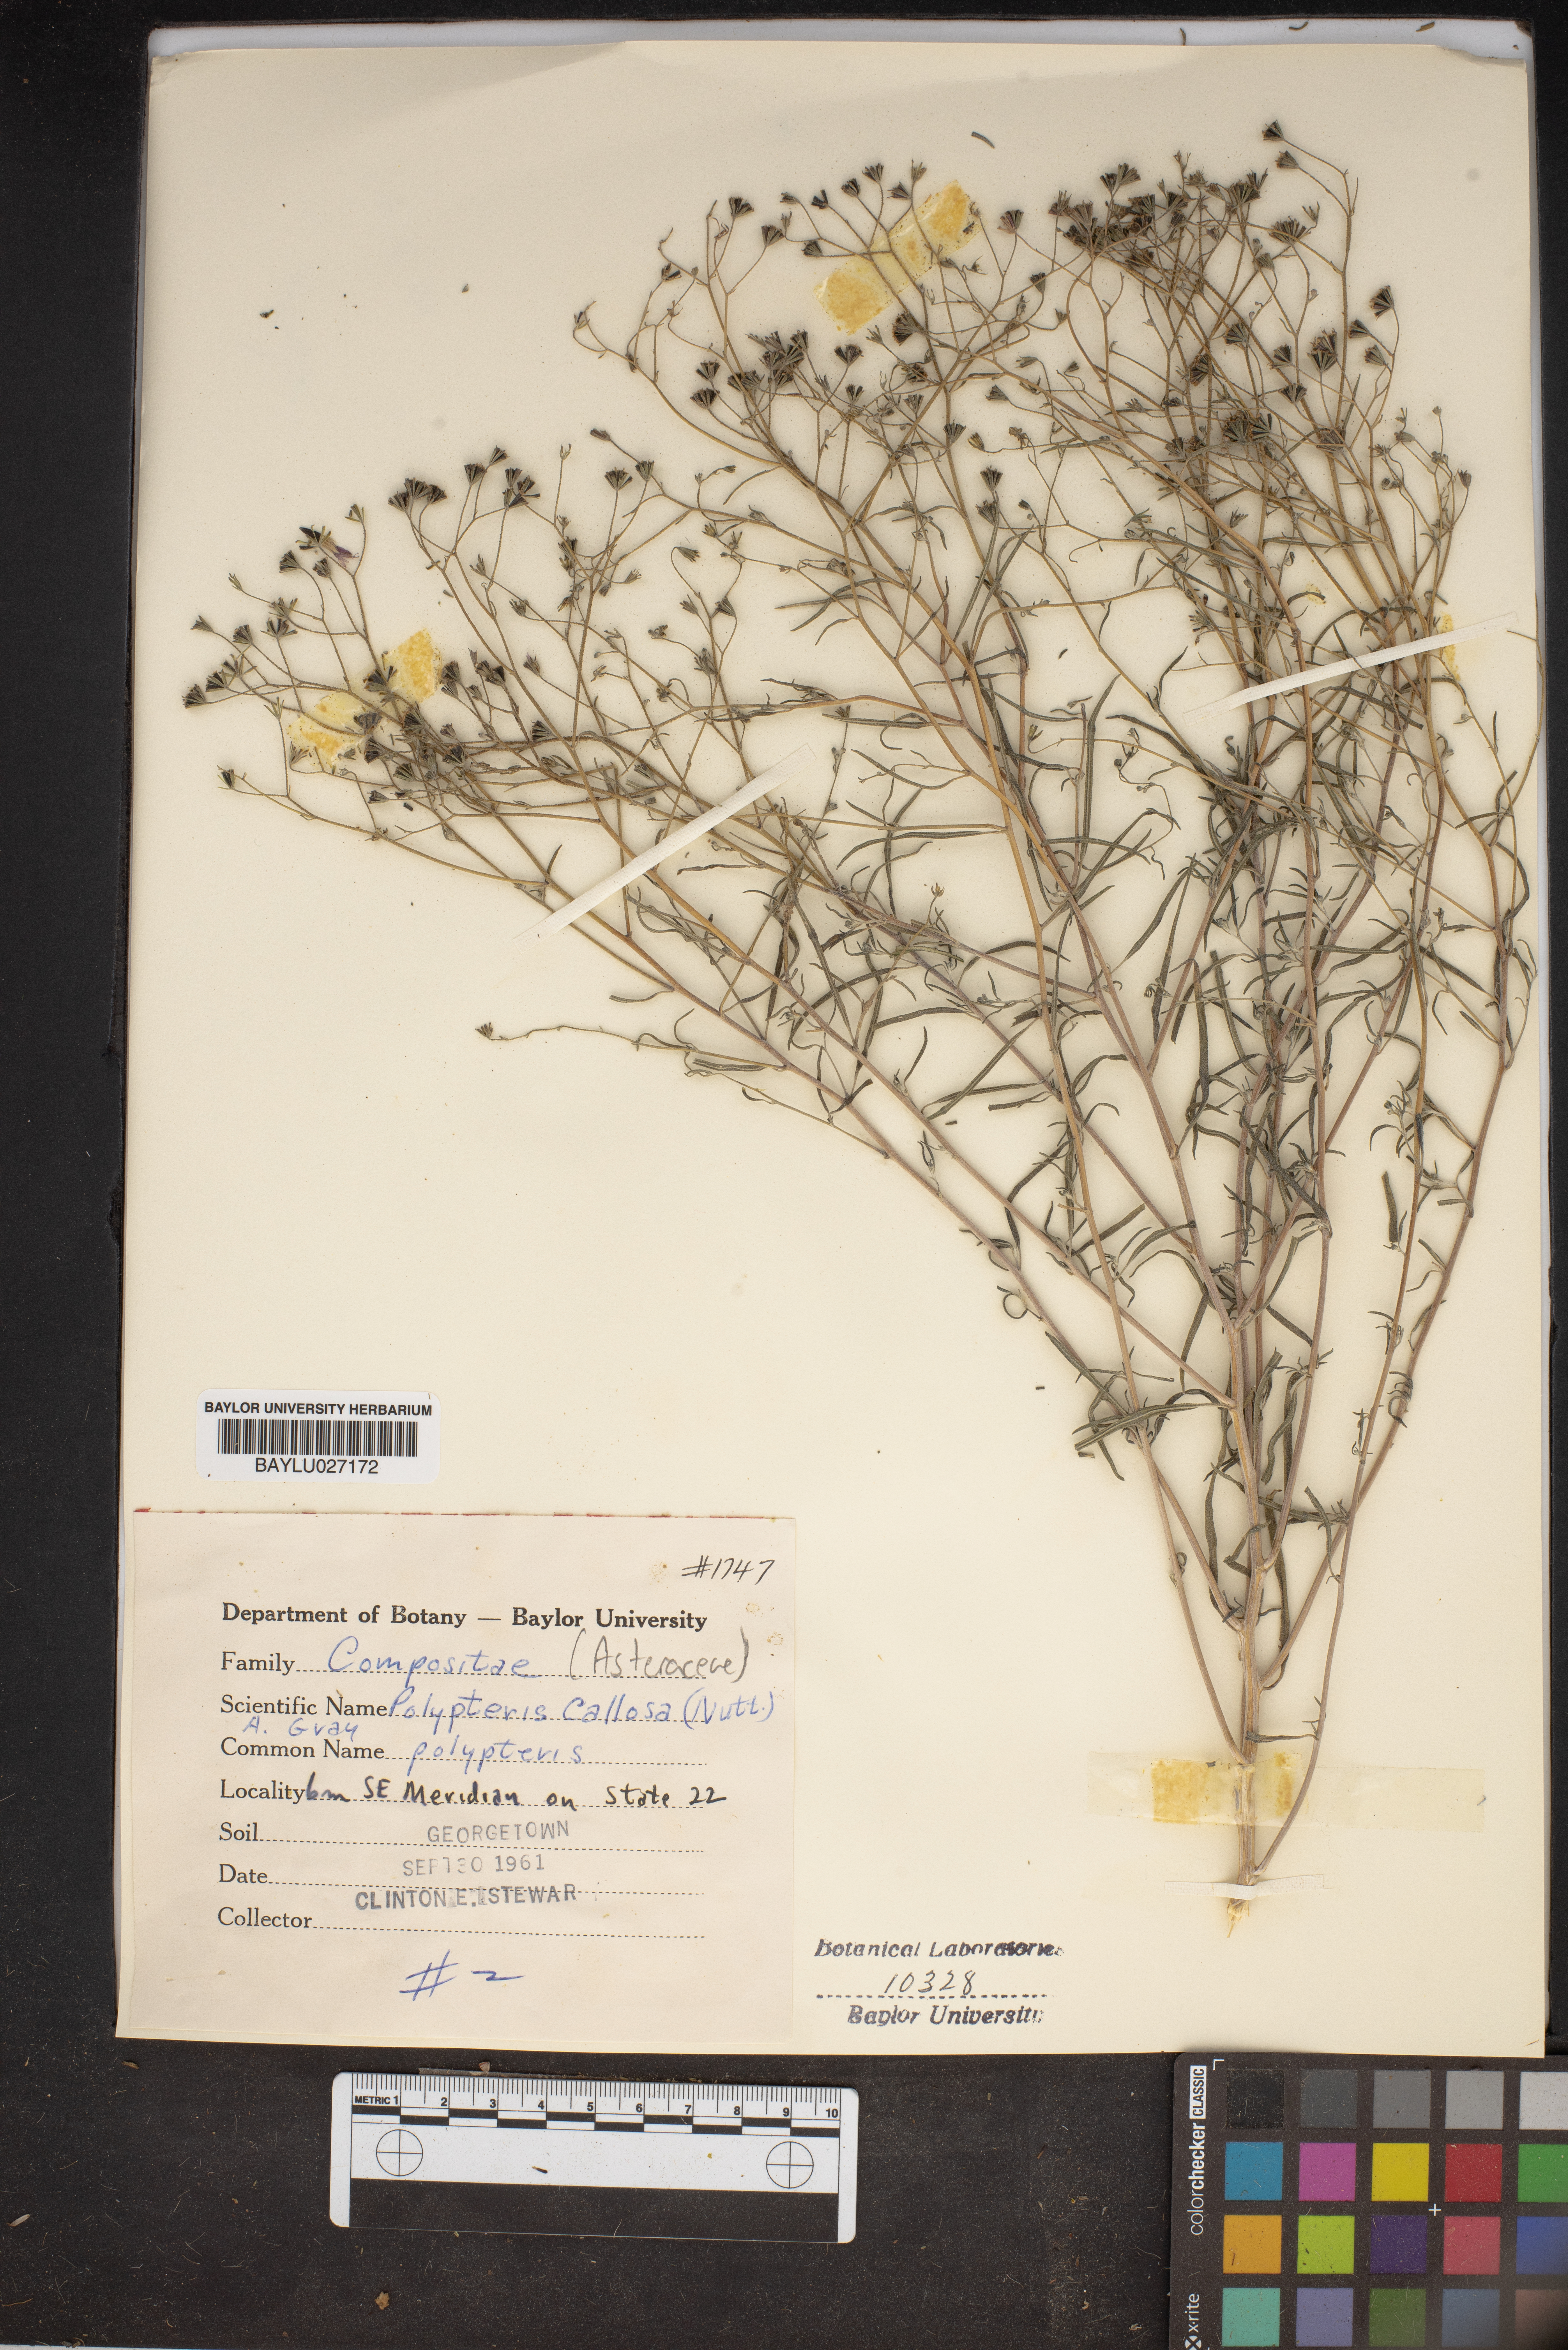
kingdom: Plantae
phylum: Tracheophyta
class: Magnoliopsida
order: Asterales
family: Asteraceae
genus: Palafoxia
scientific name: Palafoxia callosa
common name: Small palafox
